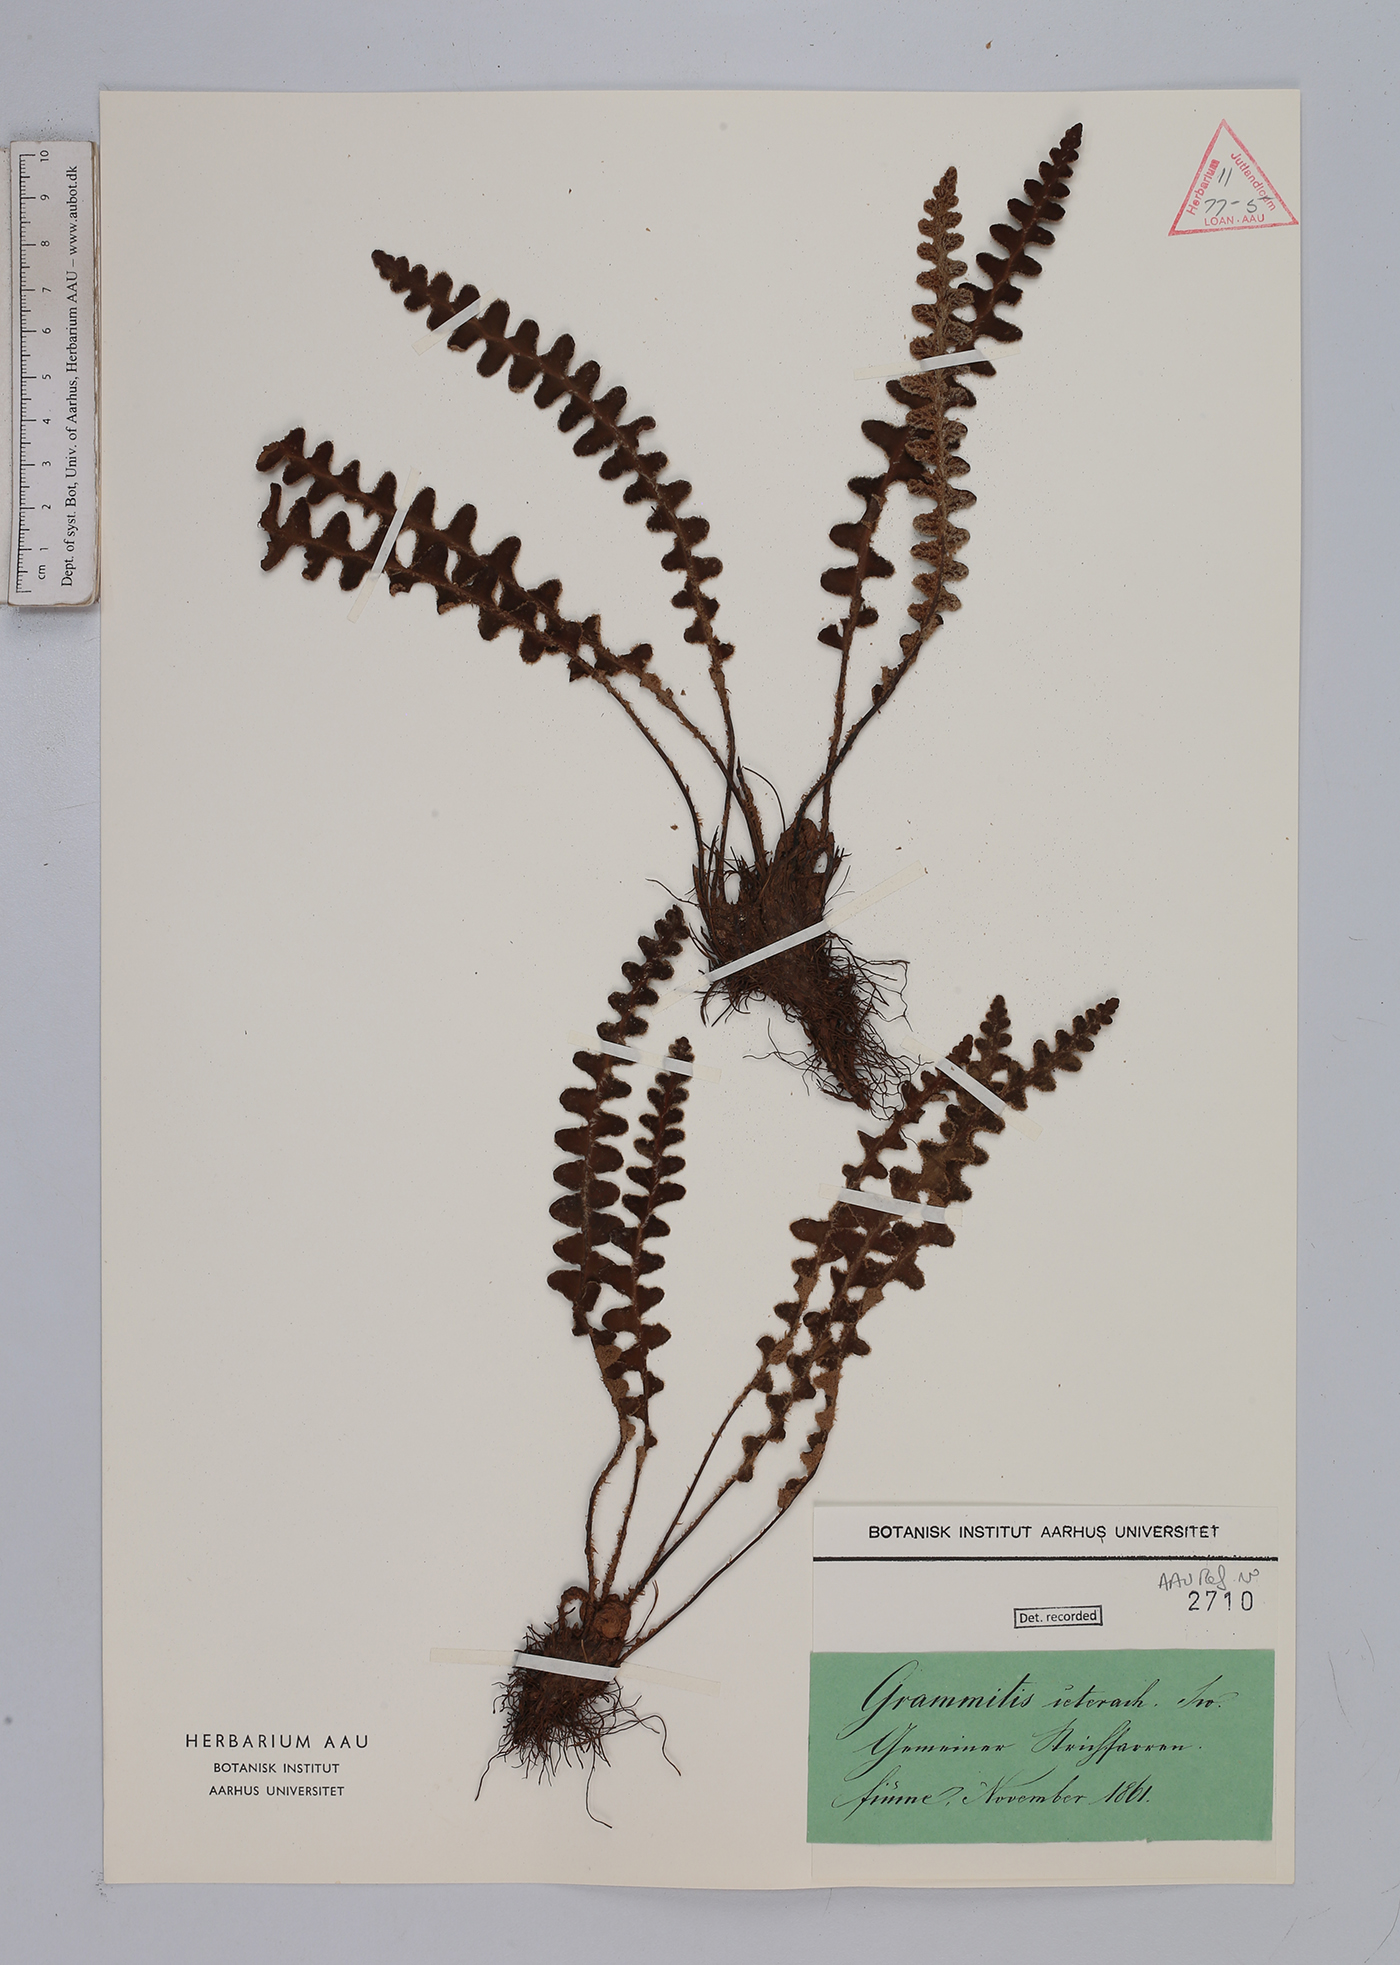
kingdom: Plantae
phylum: Tracheophyta
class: Polypodiopsida
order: Polypodiales
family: Aspleniaceae
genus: Asplenium
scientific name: Asplenium ceterach
